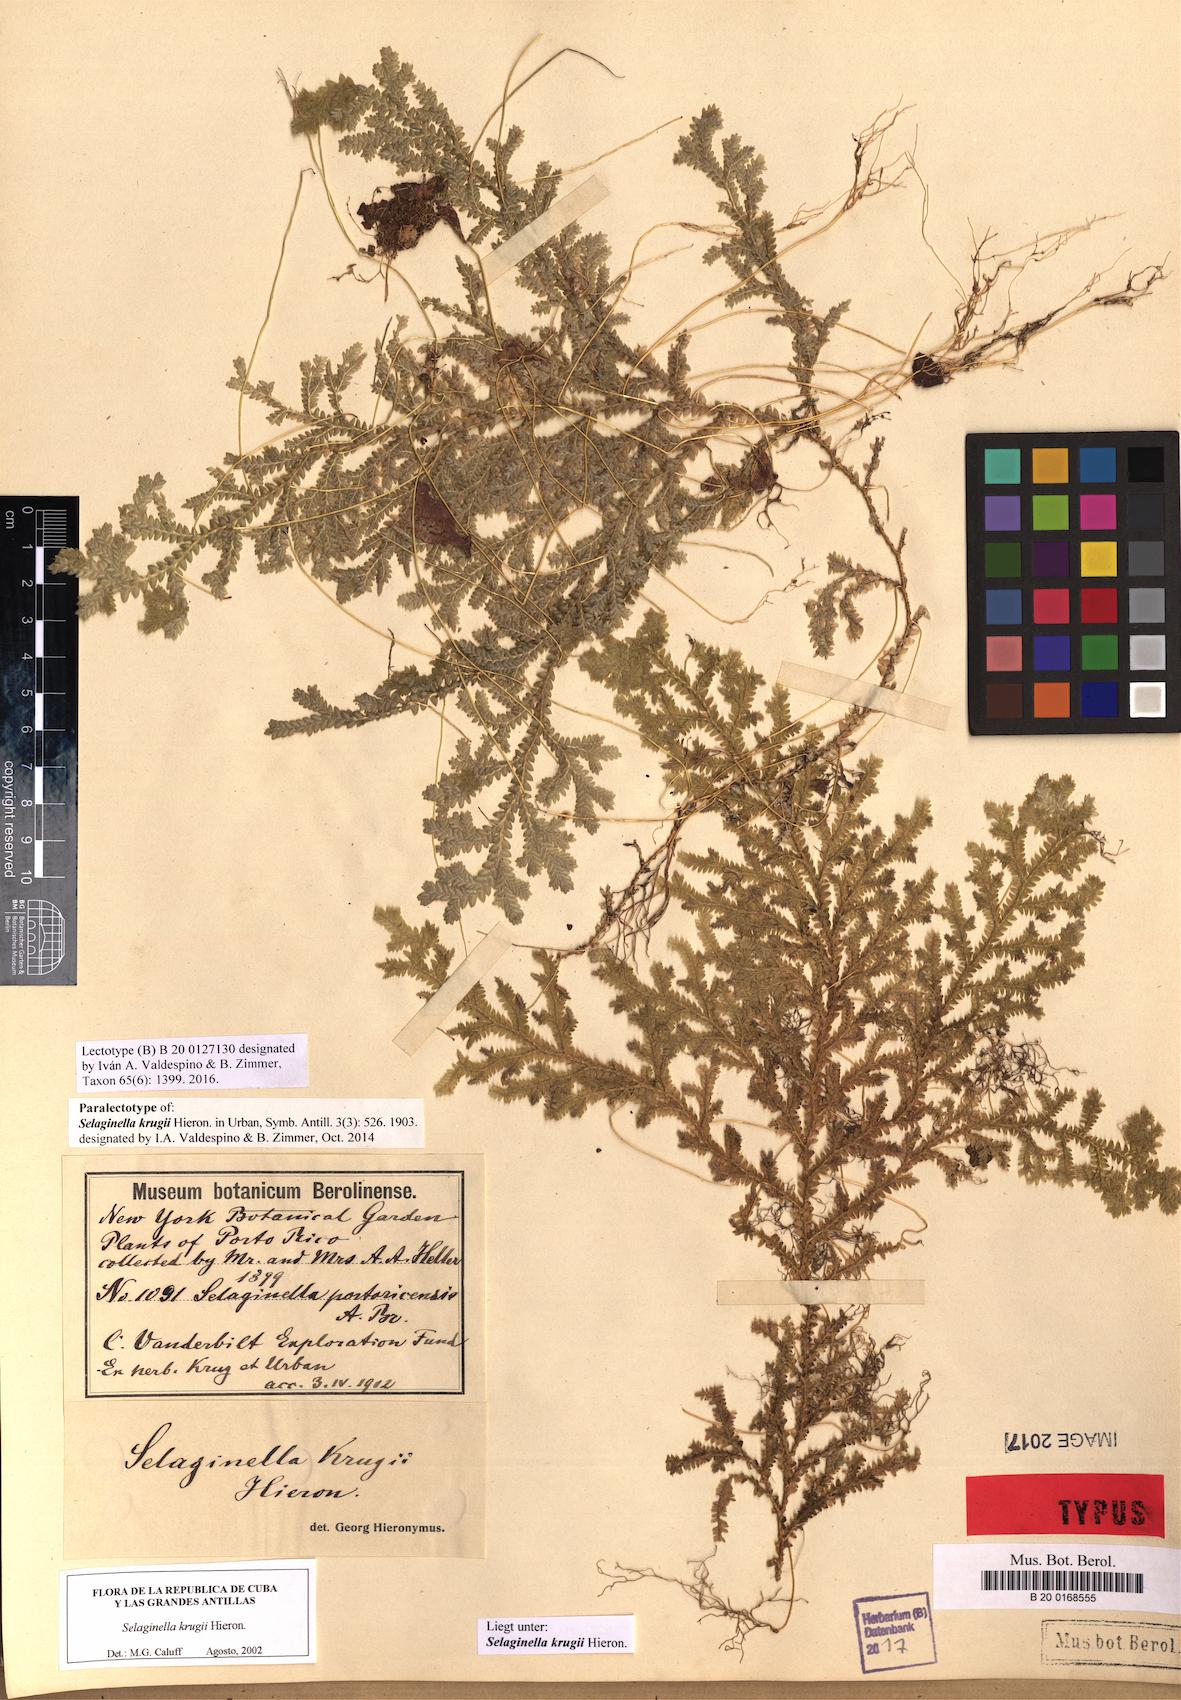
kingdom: Plantae
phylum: Tracheophyta
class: Lycopodiopsida
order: Selaginellales
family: Selaginellaceae
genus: Selaginella
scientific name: Selaginella krugii
